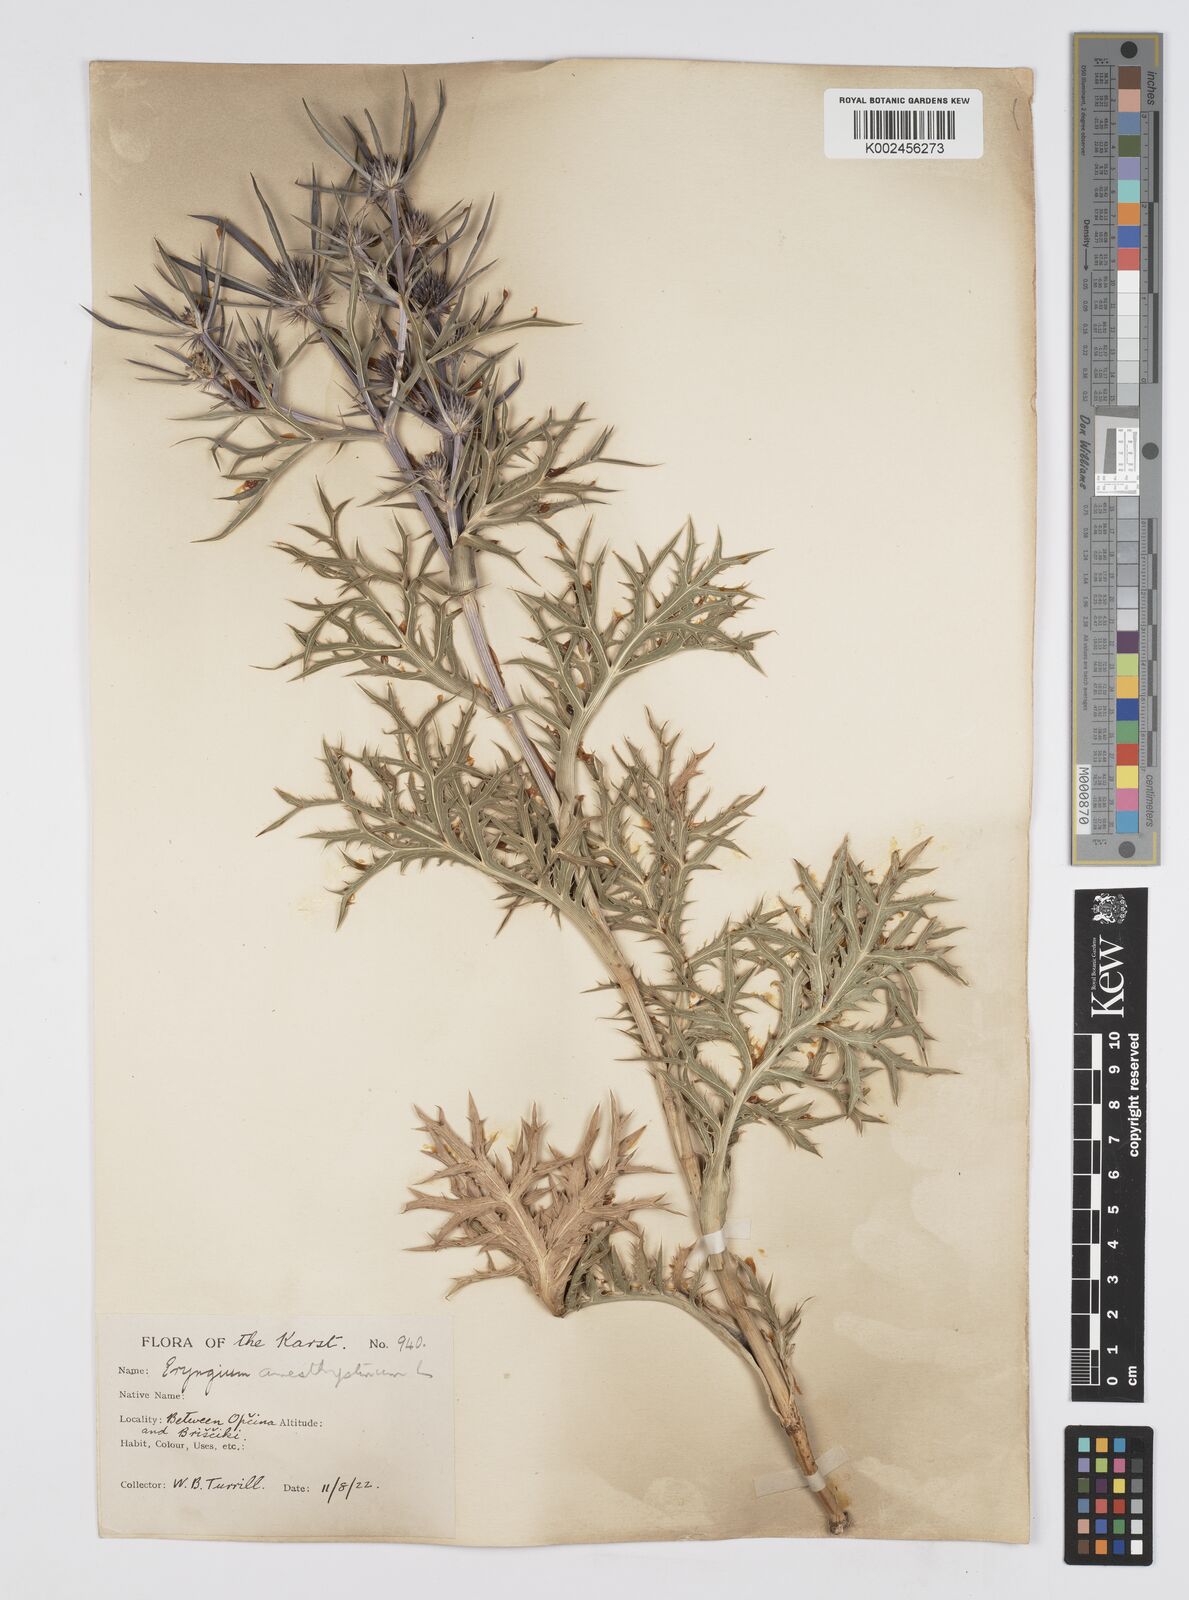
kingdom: Plantae
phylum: Tracheophyta
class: Magnoliopsida
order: Apiales
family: Apiaceae
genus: Eryngium
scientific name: Eryngium amethystinum
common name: Amethyst eryngo
